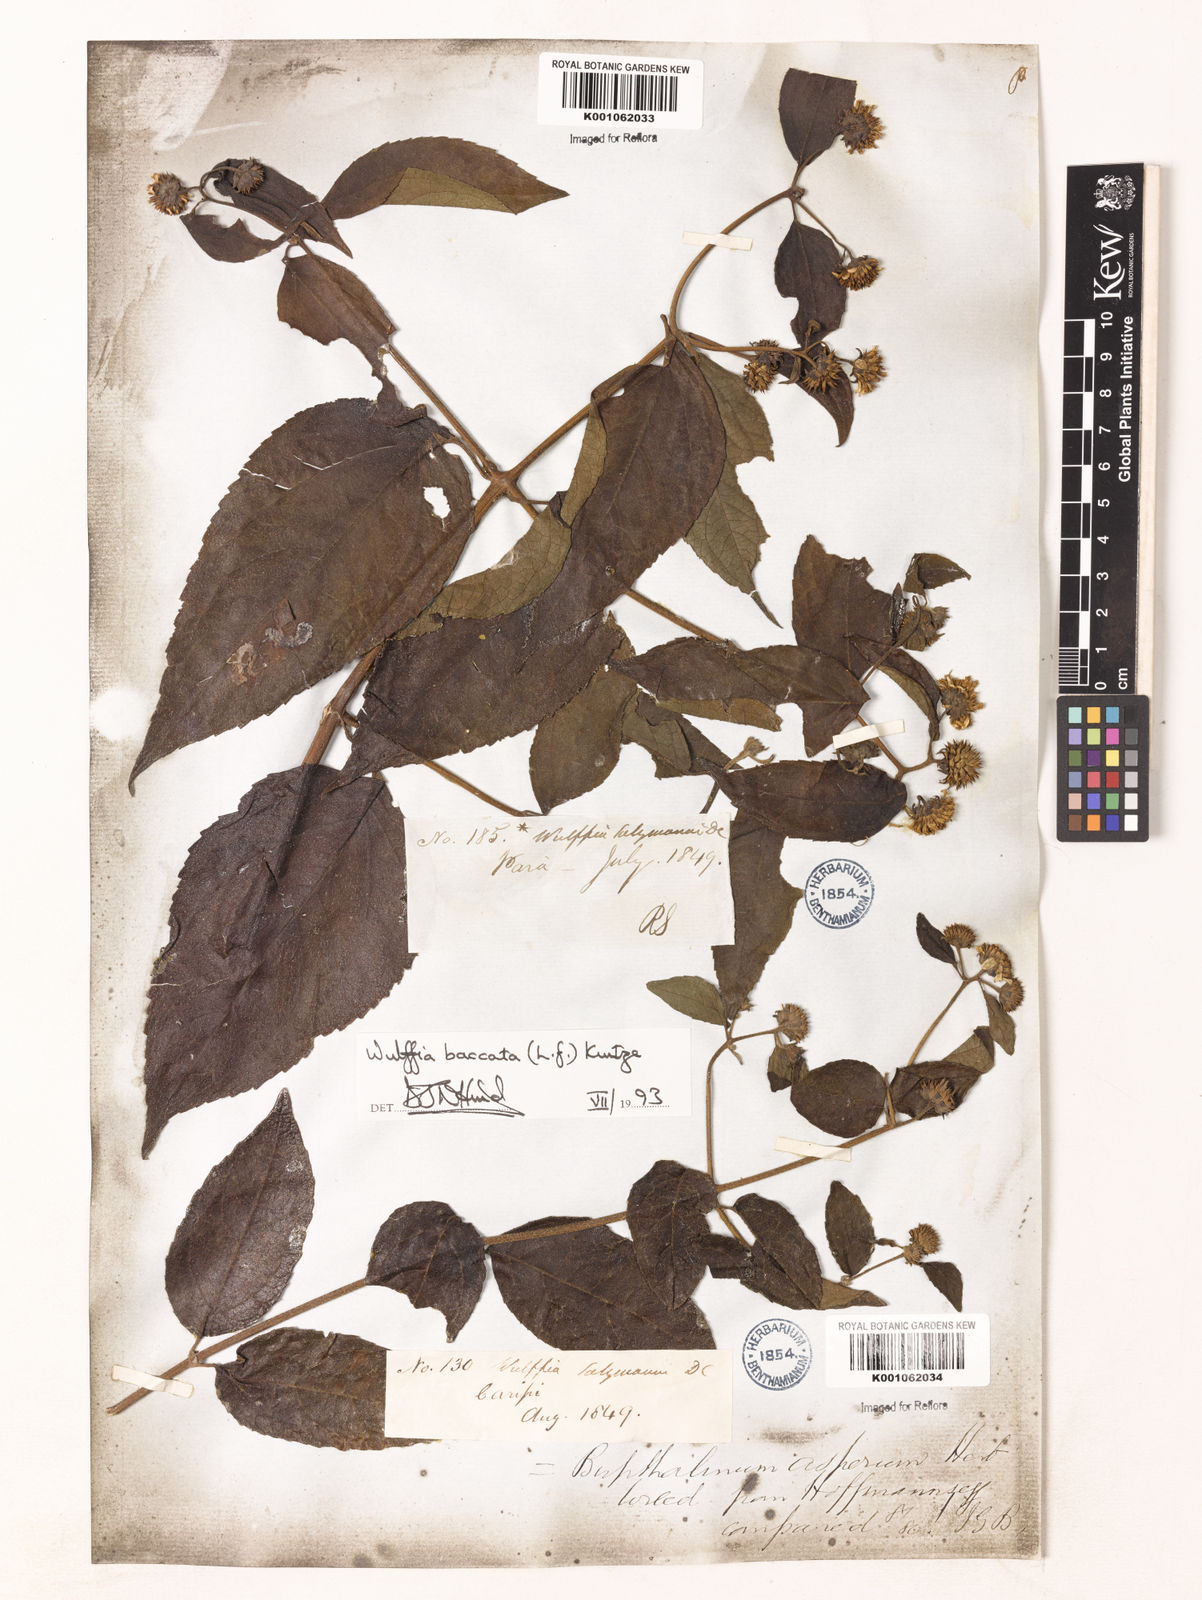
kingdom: Plantae
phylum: Tracheophyta
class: Magnoliopsida
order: Asterales
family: Asteraceae
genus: Tilesia
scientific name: Tilesia baccata
